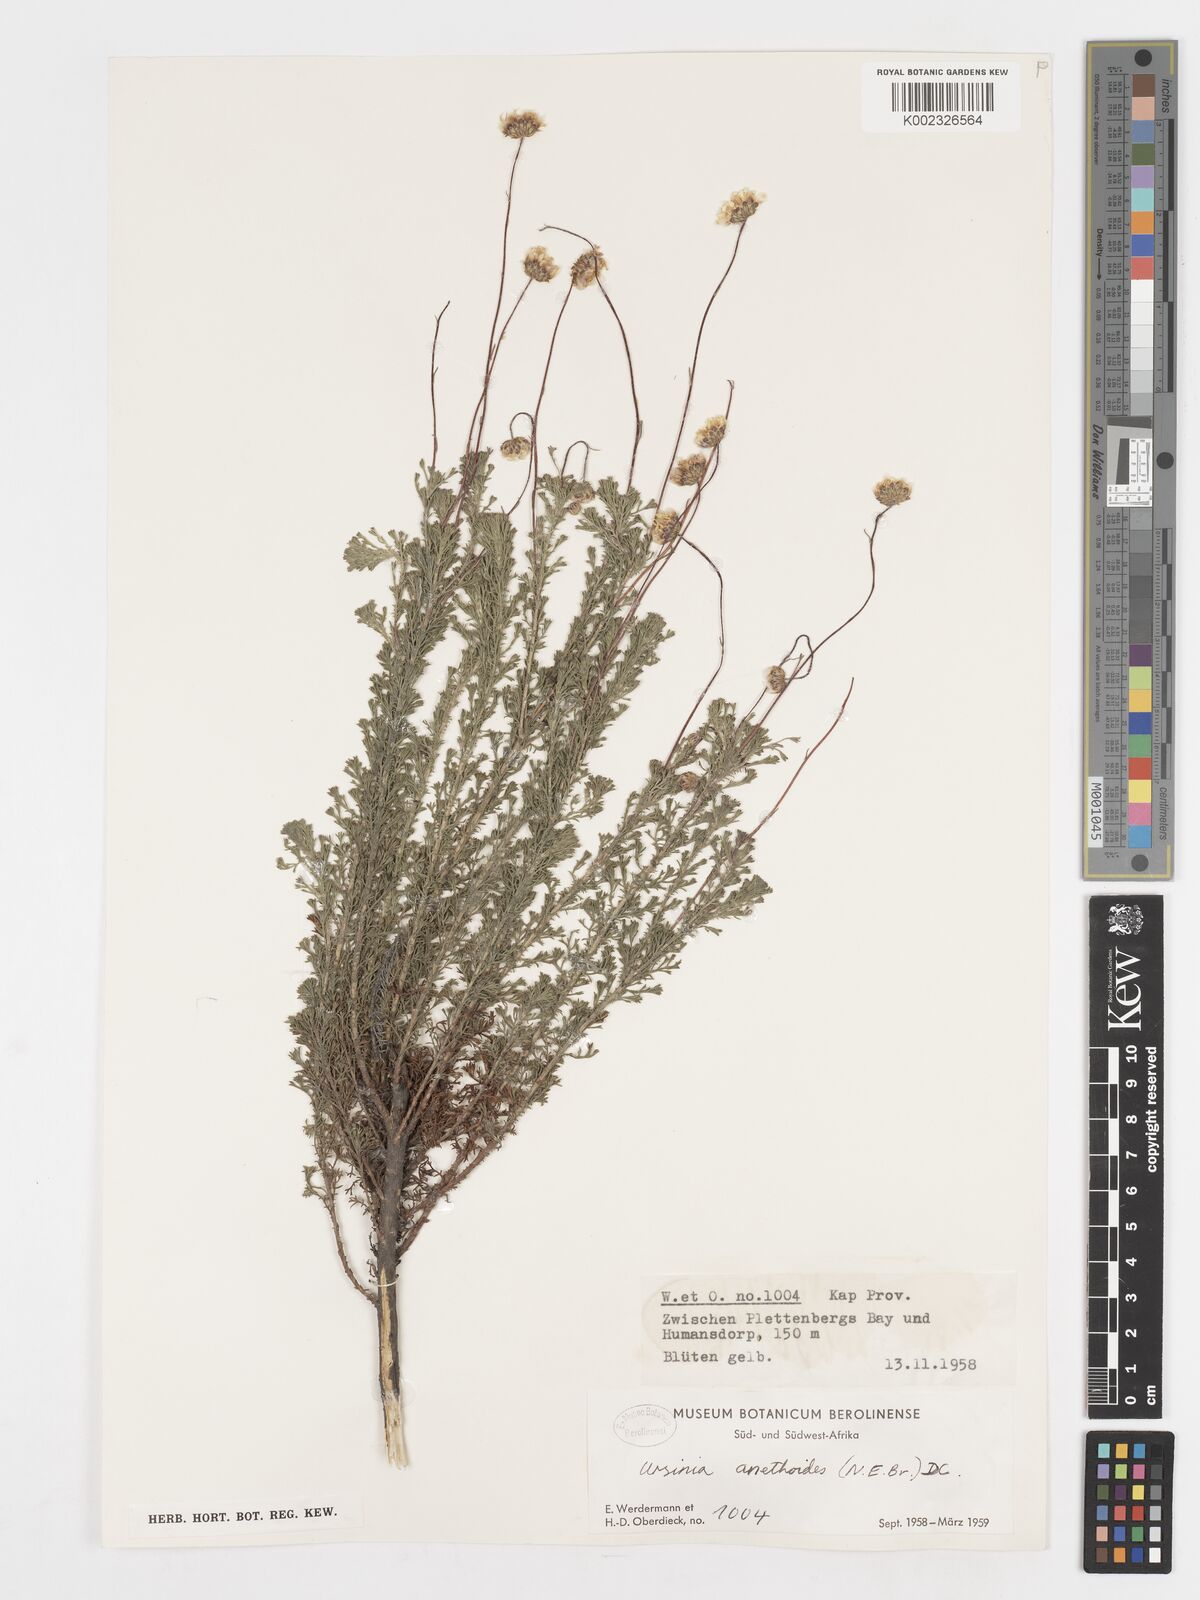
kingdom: Plantae
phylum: Tracheophyta
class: Magnoliopsida
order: Asterales
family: Asteraceae
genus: Ursinia
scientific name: Ursinia anethoides
